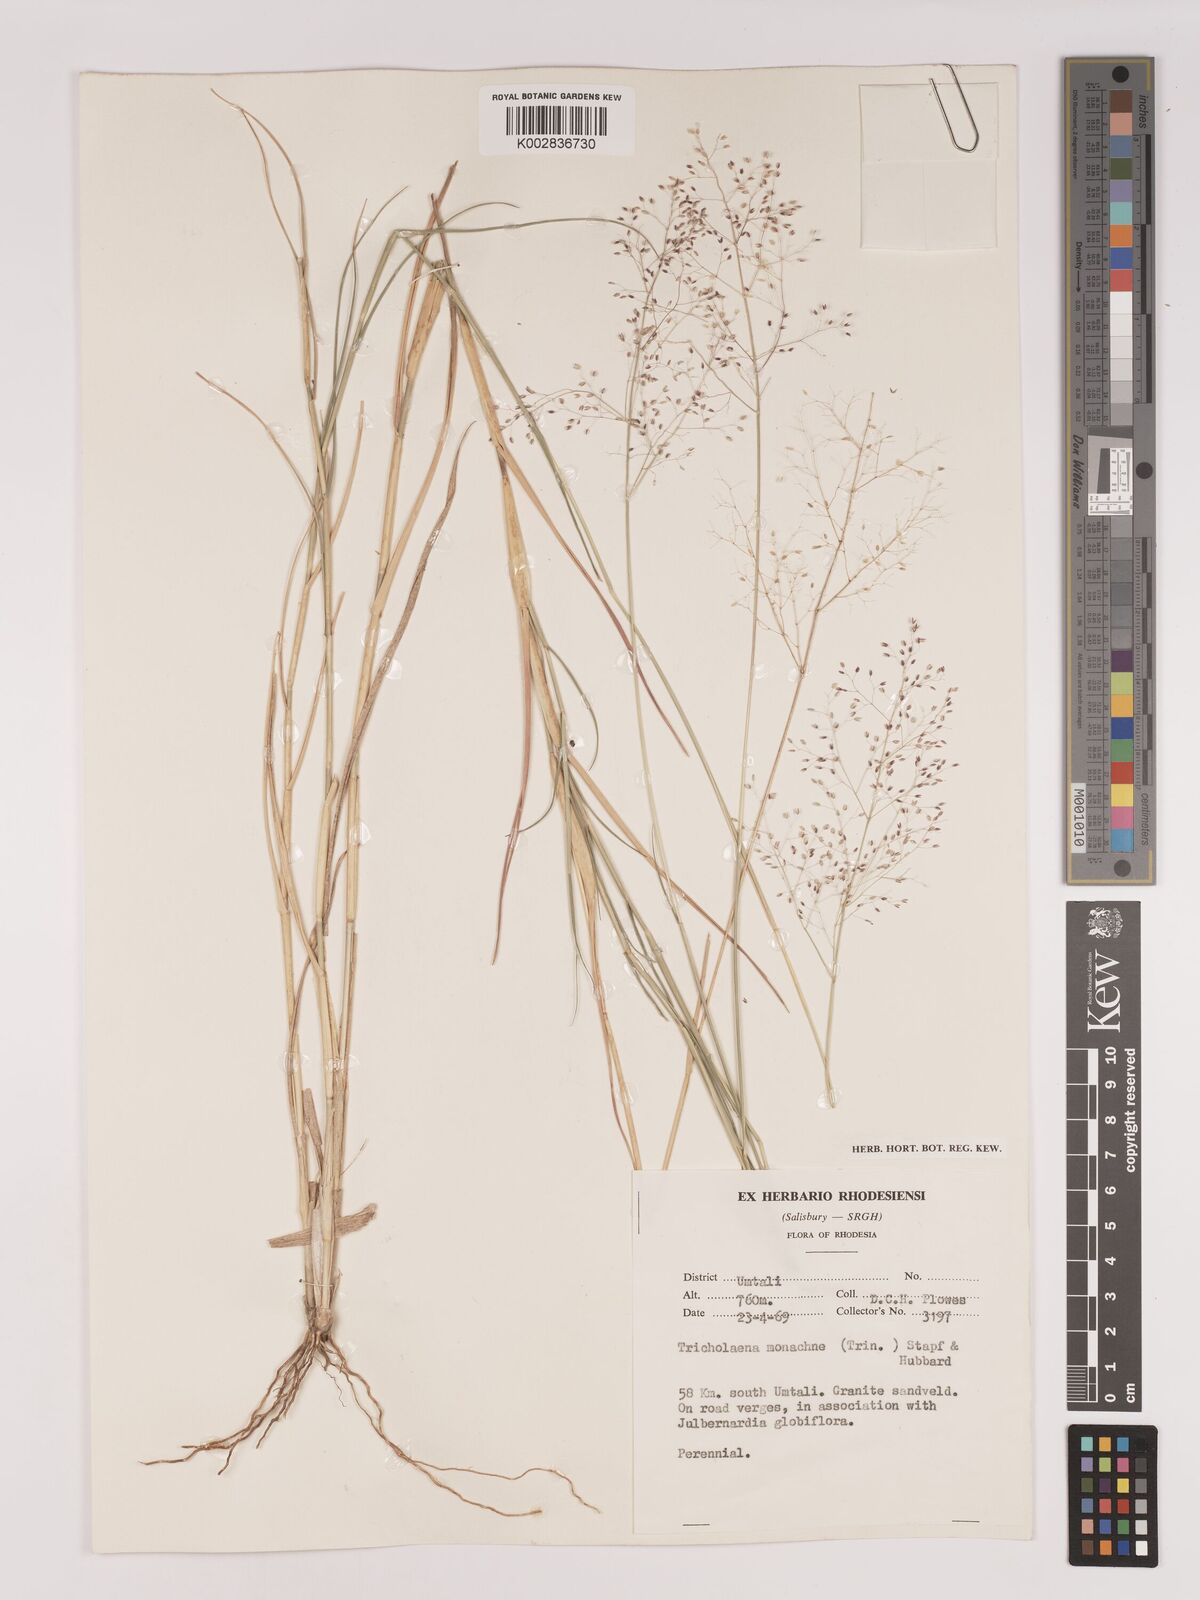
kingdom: Plantae
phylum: Tracheophyta
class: Liliopsida
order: Poales
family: Poaceae
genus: Tricholaena
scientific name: Tricholaena monachne
